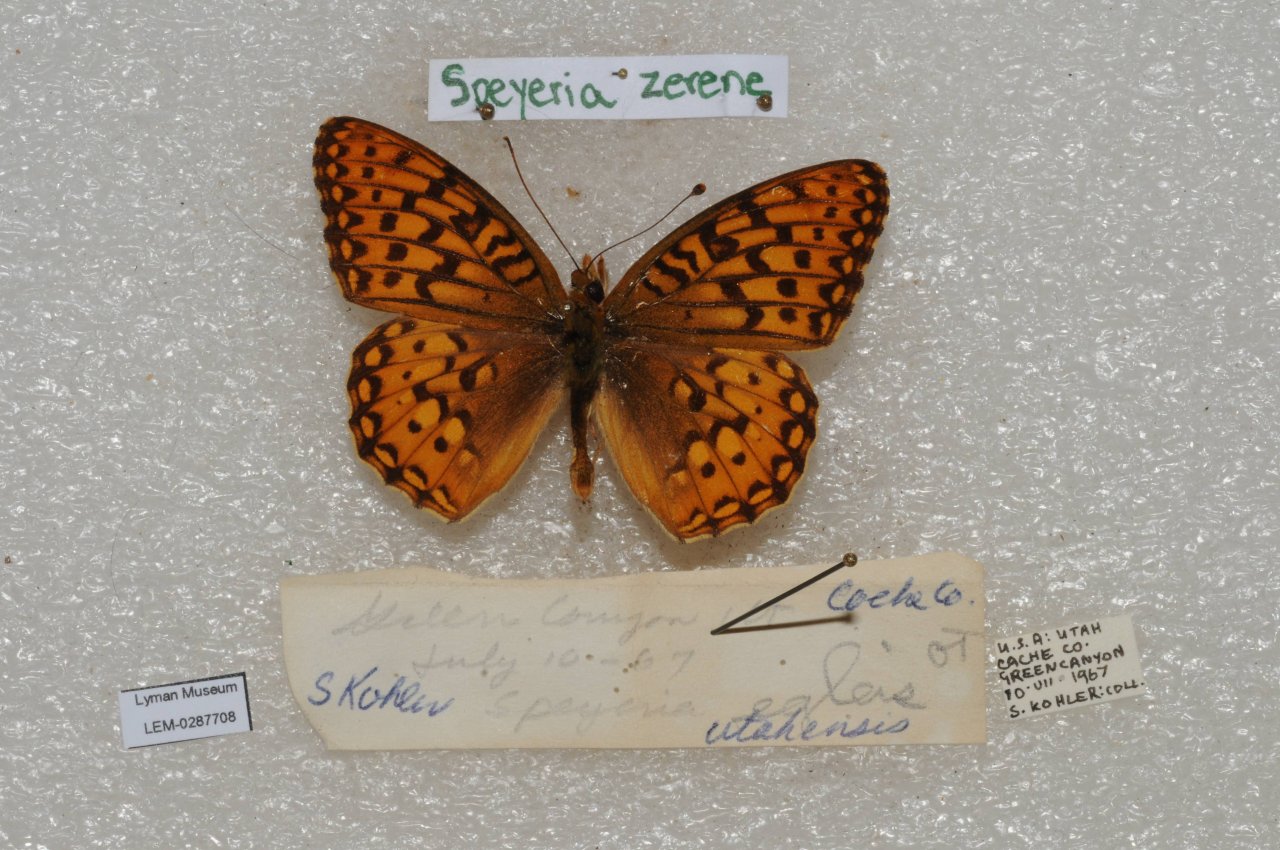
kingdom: Animalia
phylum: Arthropoda
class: Insecta
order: Lepidoptera
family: Nymphalidae
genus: Speyeria
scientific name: Speyeria zerene
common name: Zerene Fritillary
